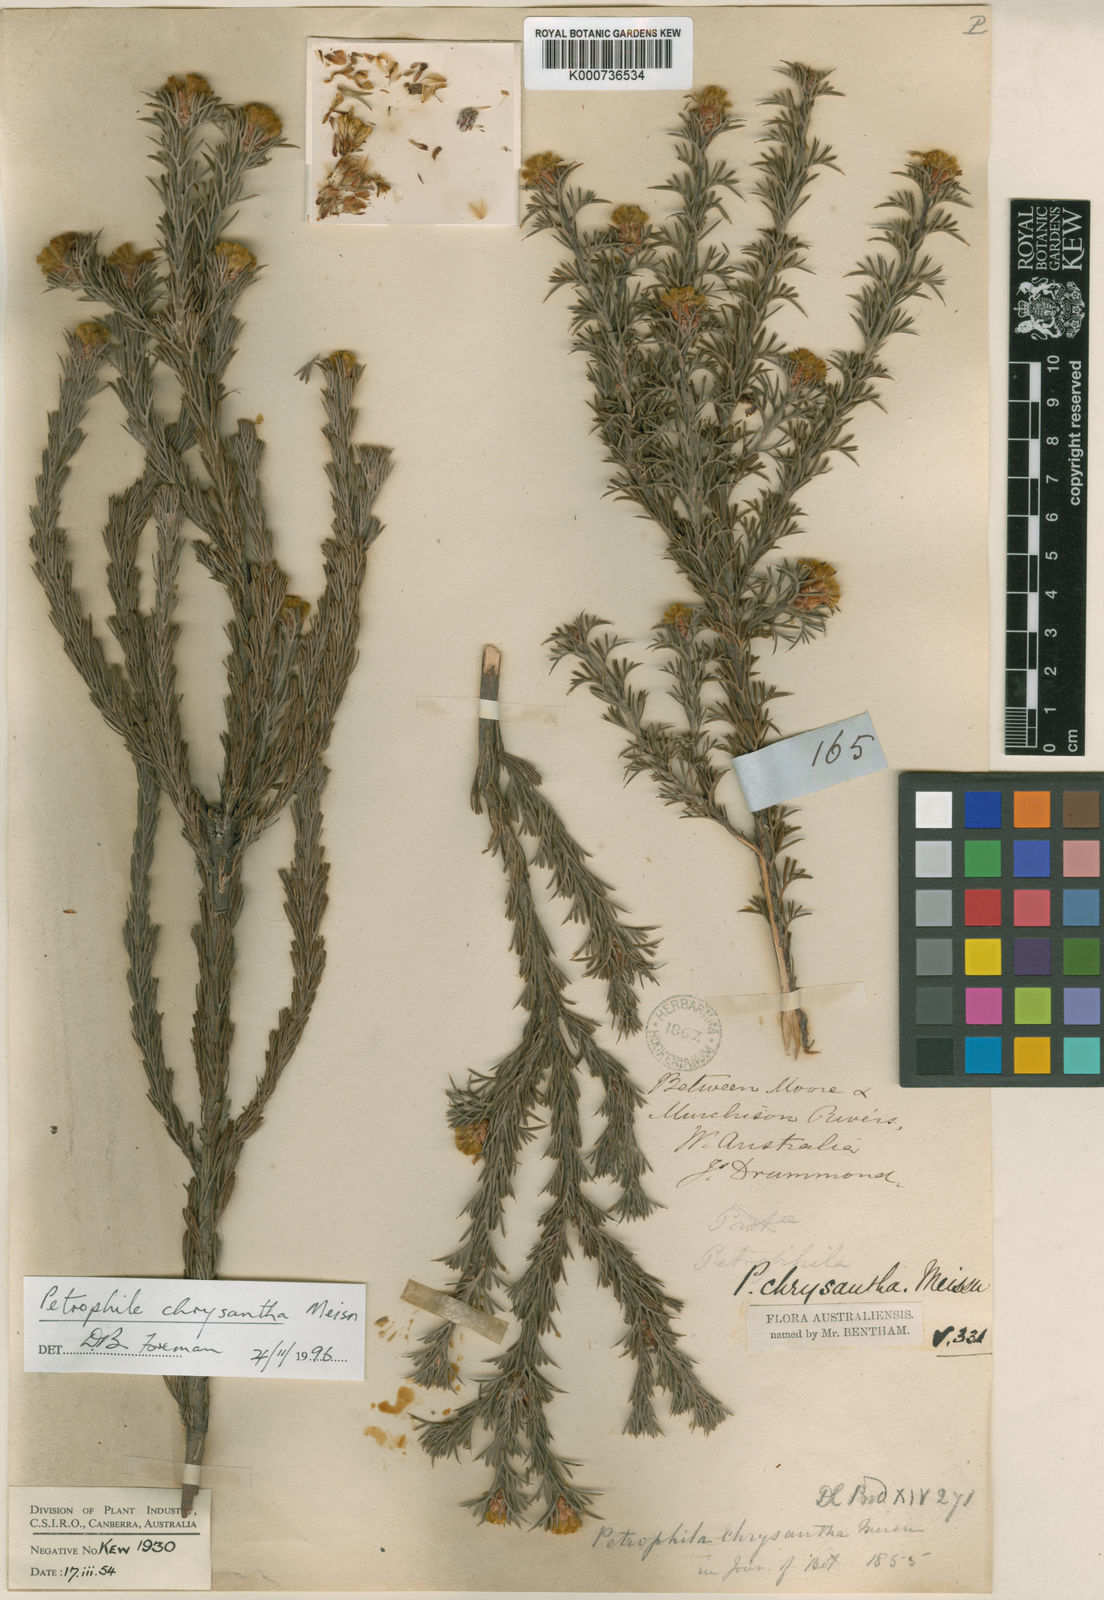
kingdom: Plantae
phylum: Tracheophyta
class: Magnoliopsida
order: Proteales
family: Proteaceae
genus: Petrophile
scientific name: Petrophile chrysantha
